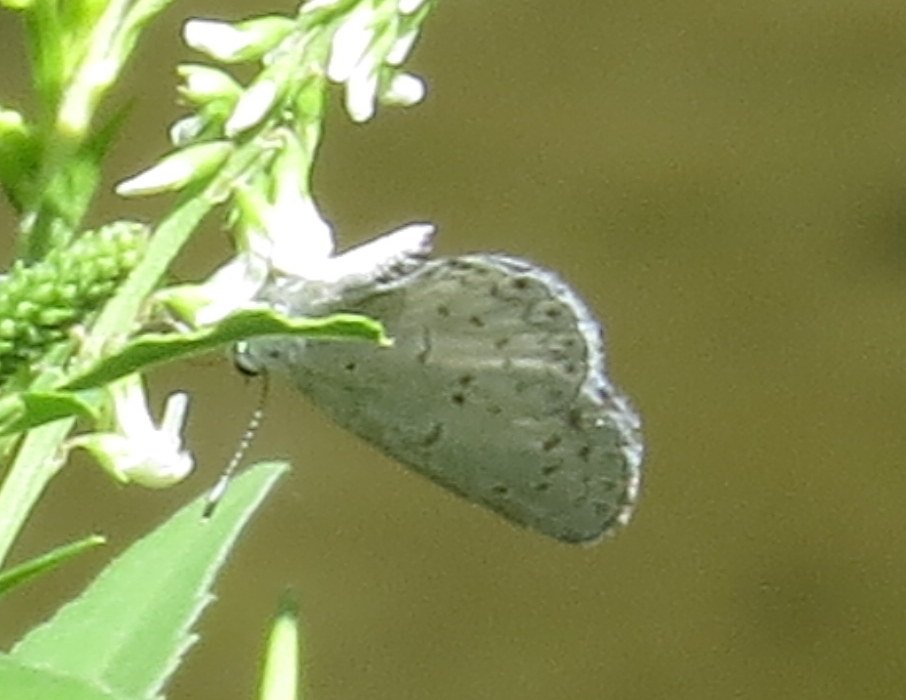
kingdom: Animalia
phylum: Arthropoda
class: Insecta
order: Lepidoptera
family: Lycaenidae
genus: Celastrina
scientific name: Celastrina
